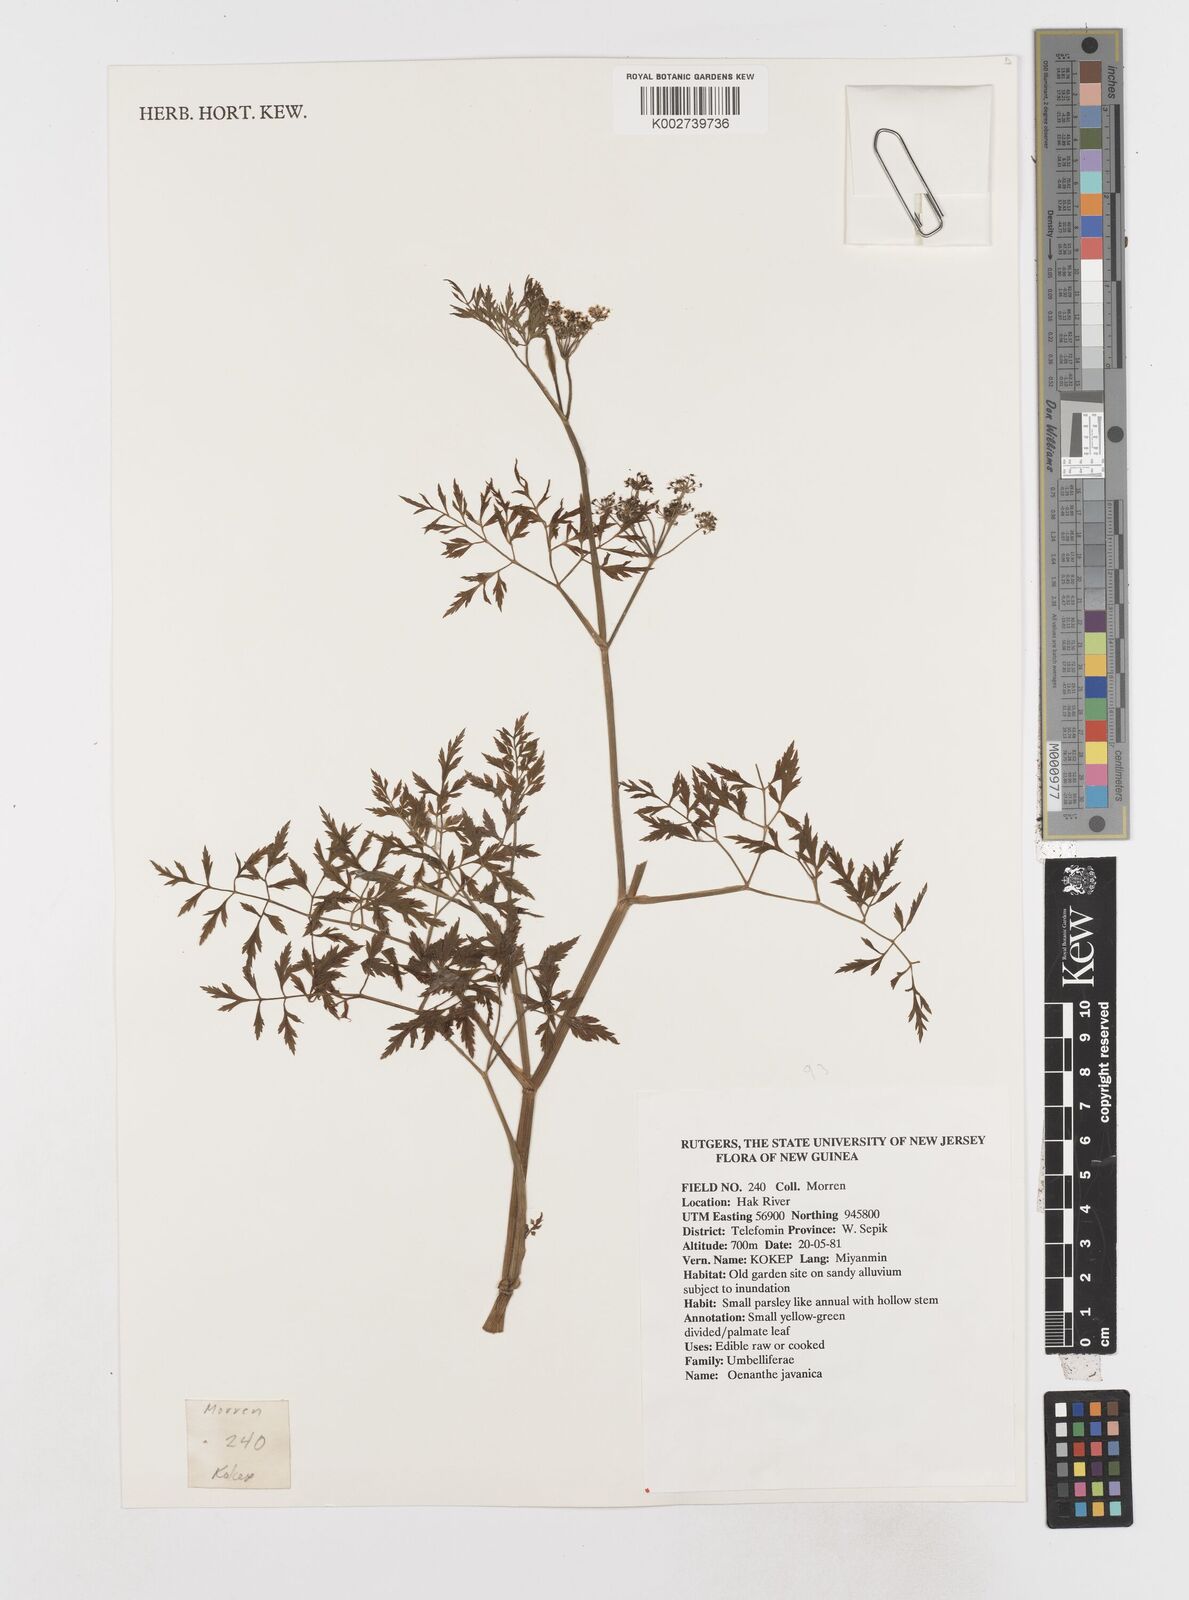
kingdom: Plantae
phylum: Tracheophyta
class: Magnoliopsida
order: Apiales
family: Apiaceae
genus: Oenanthe
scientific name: Oenanthe javanica
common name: Java water-dropwort
